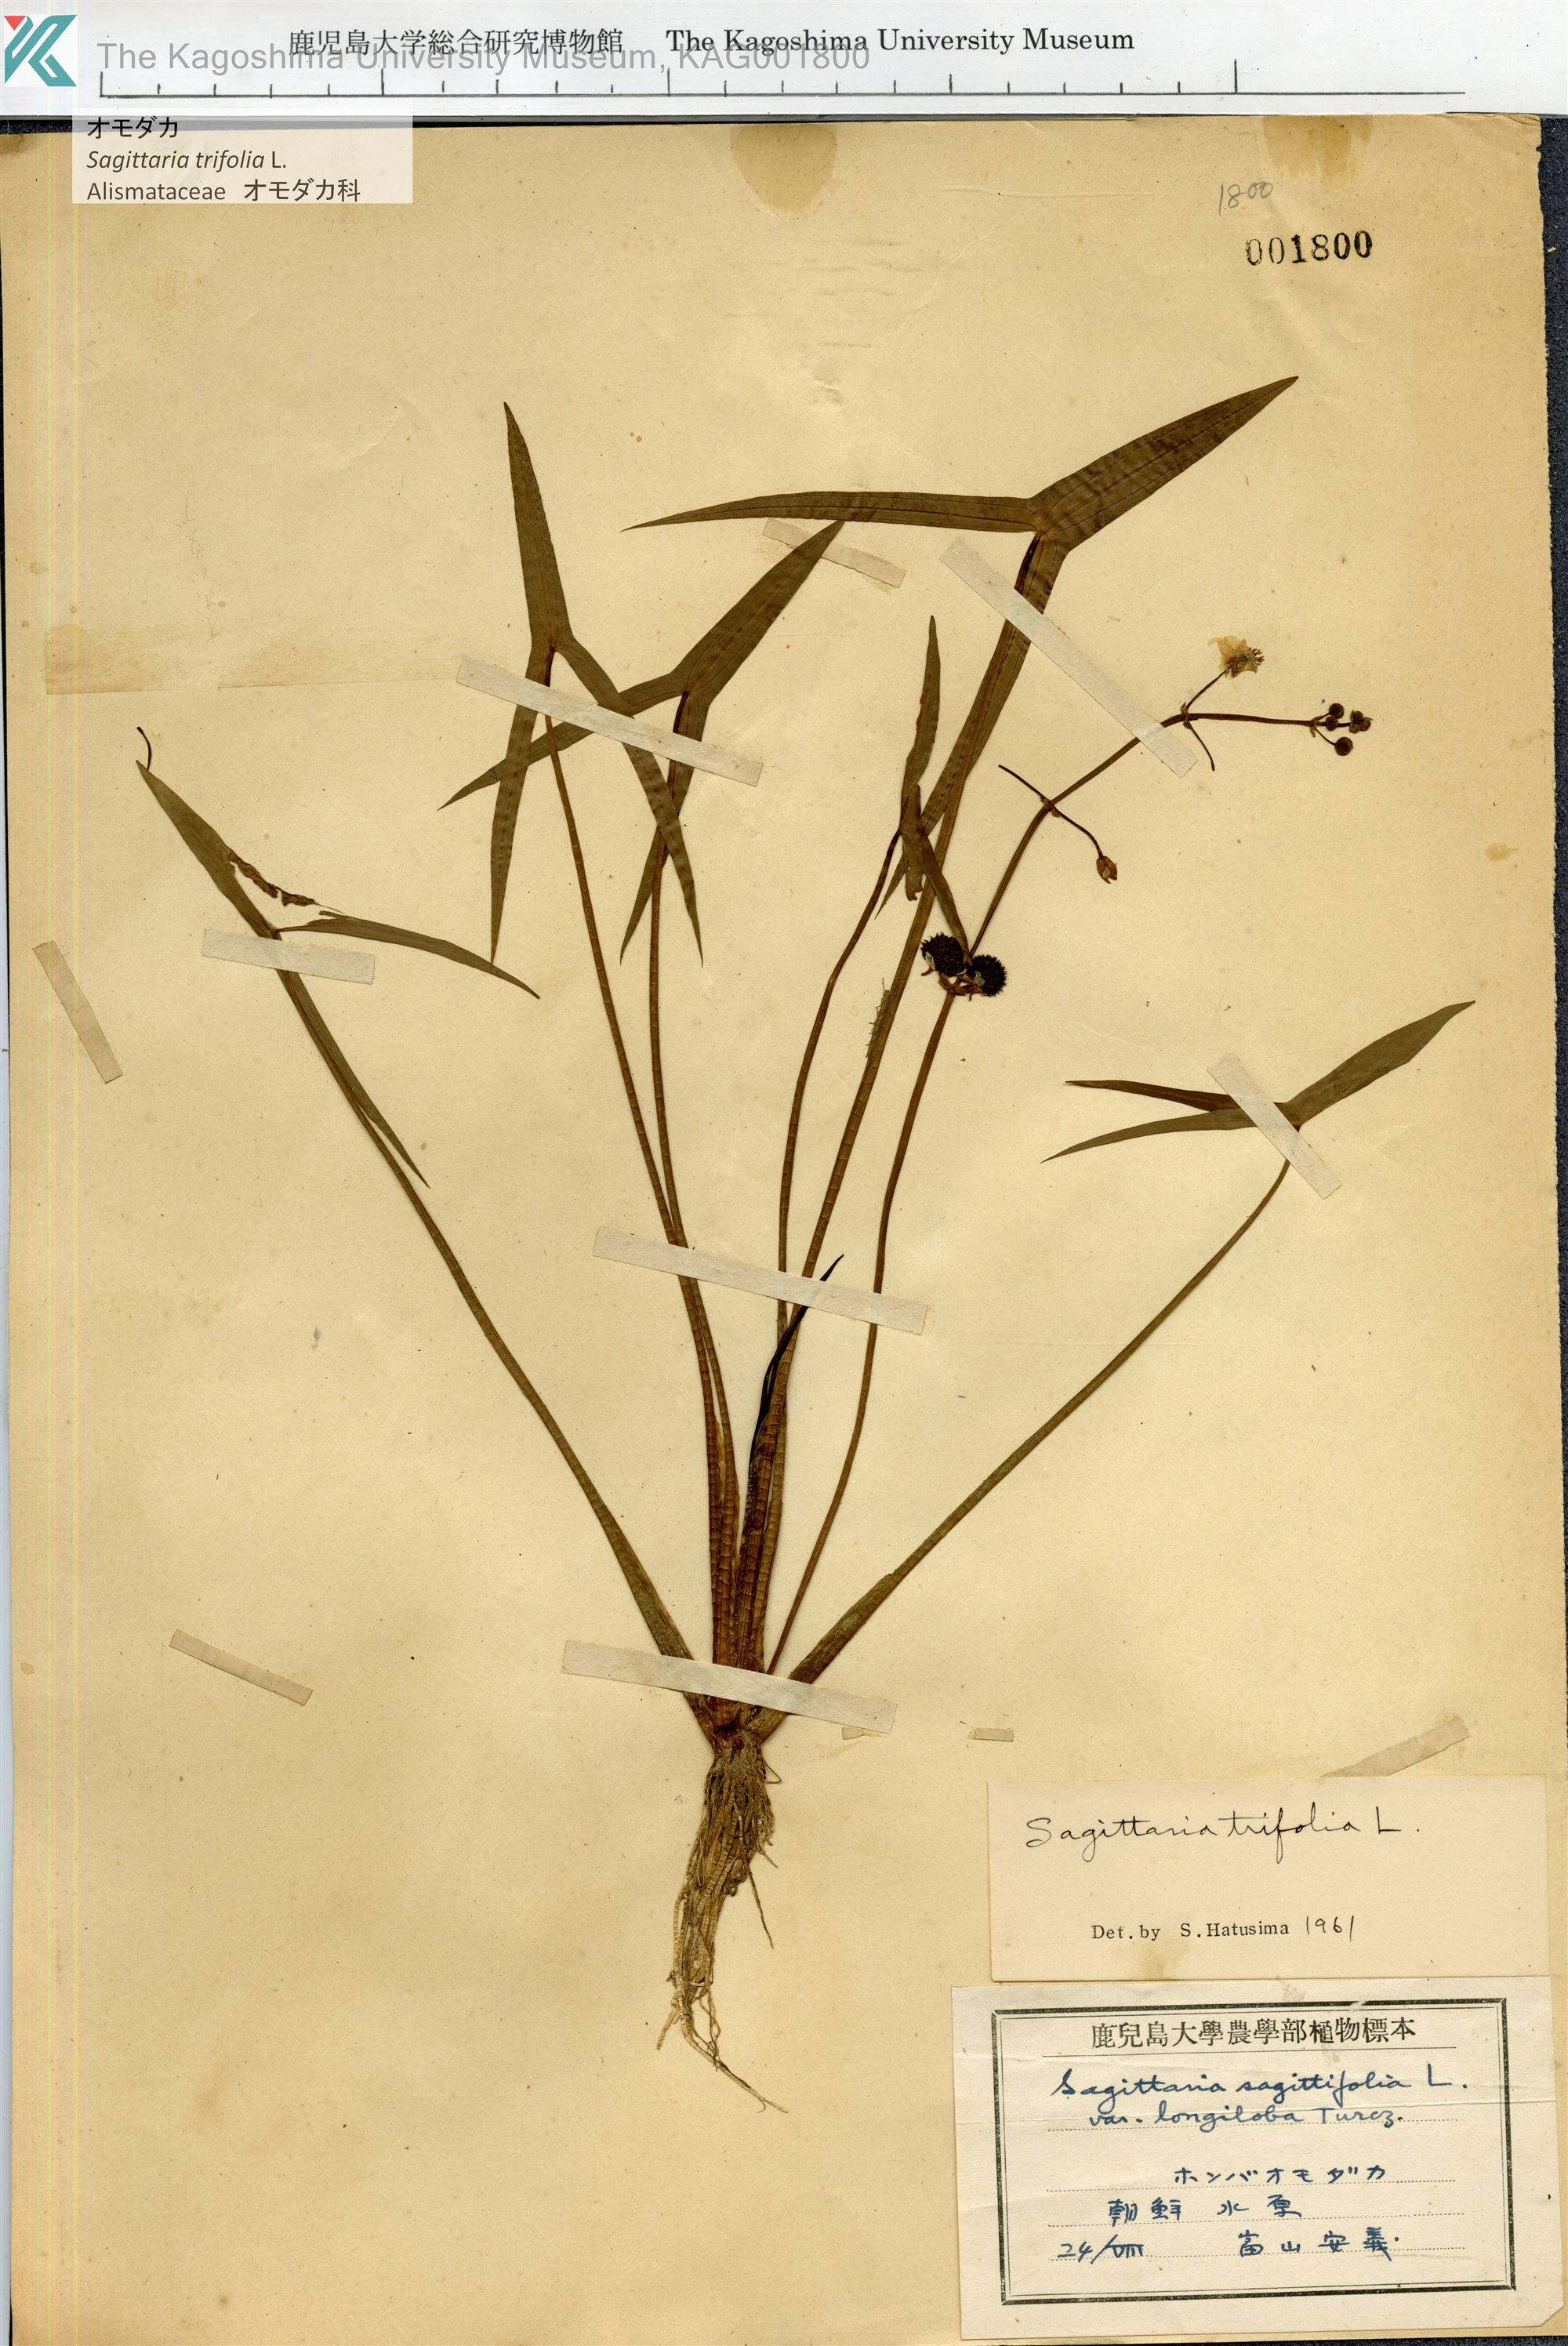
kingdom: Plantae
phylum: Tracheophyta
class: Liliopsida
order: Alismatales
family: Alismataceae
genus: Sagittaria
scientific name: Sagittaria trifolia
